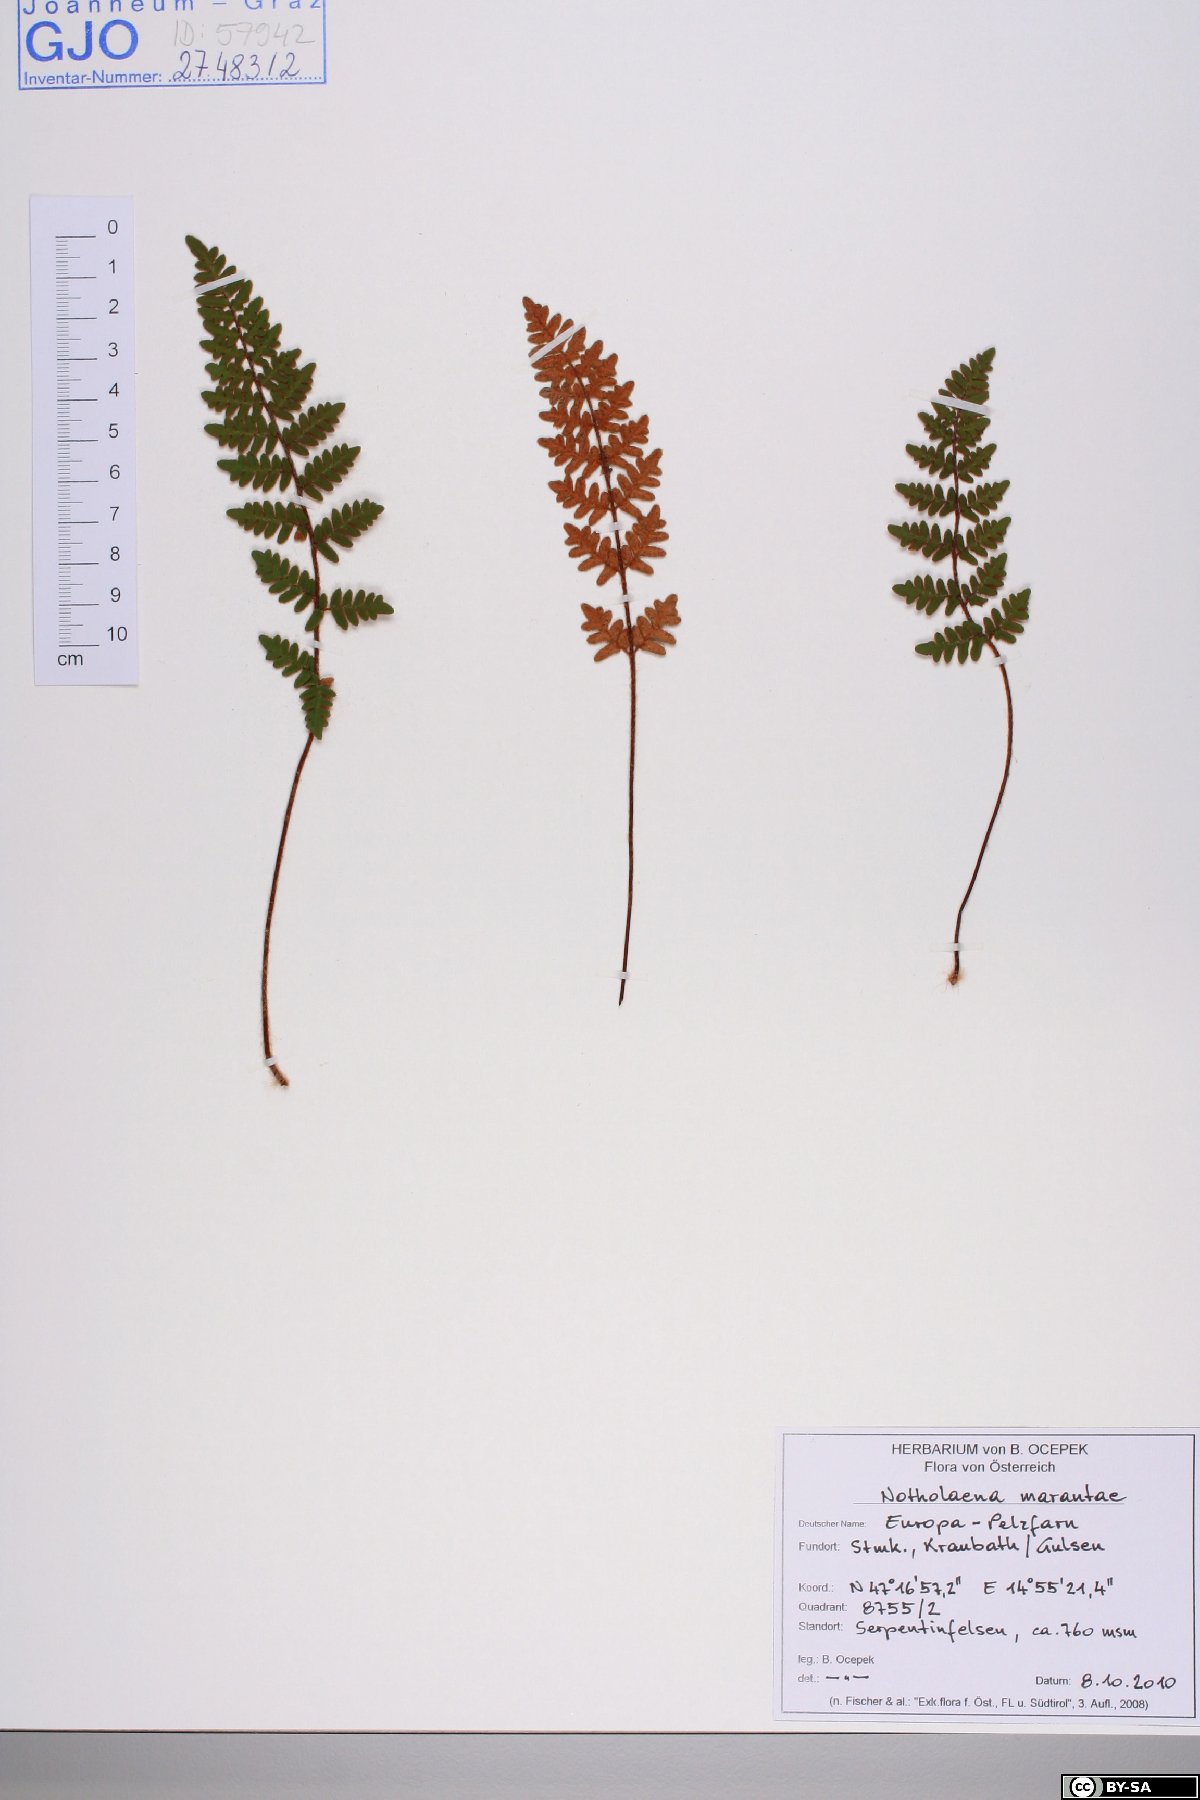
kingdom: Plantae
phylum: Tracheophyta
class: Polypodiopsida
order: Polypodiales
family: Pteridaceae
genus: Paragymnopteris
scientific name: Paragymnopteris marantae
